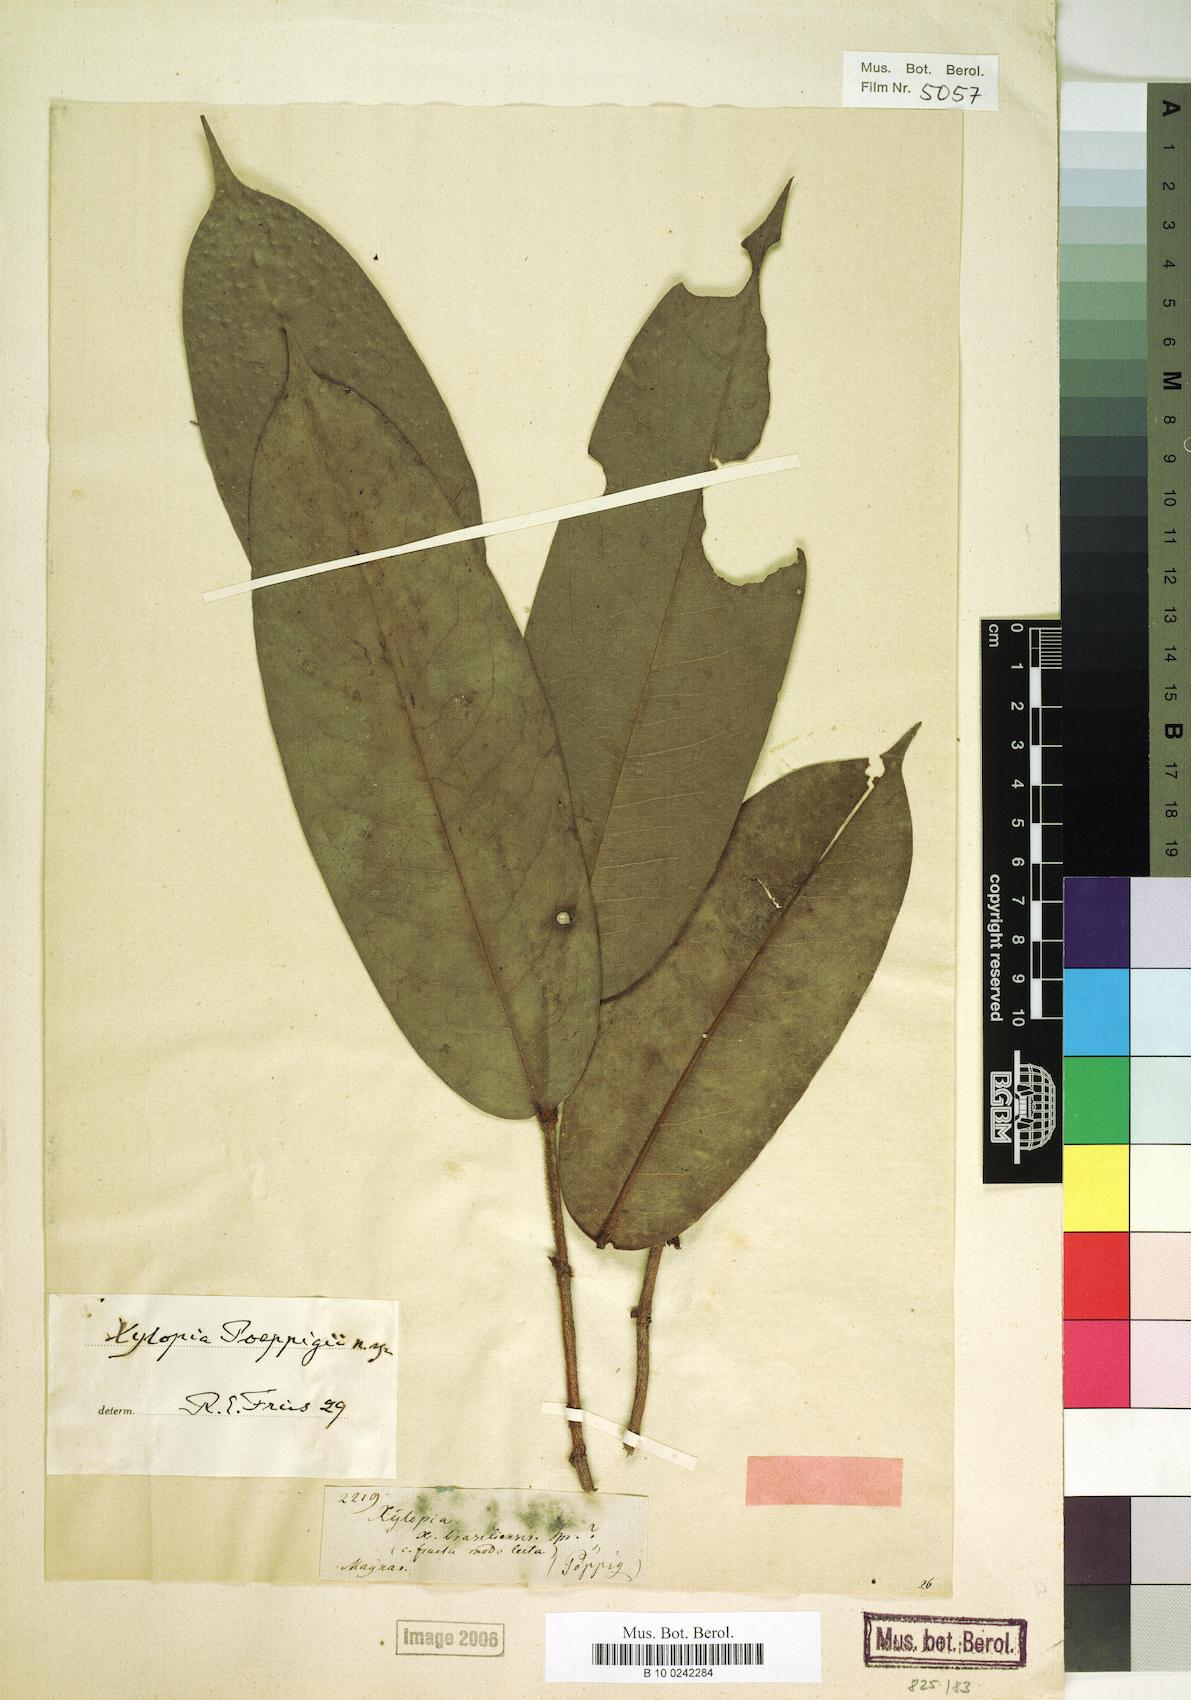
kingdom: Plantae
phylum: Tracheophyta
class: Magnoliopsida
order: Magnoliales
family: Annonaceae
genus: Xylopia
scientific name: Xylopia cuspidata
